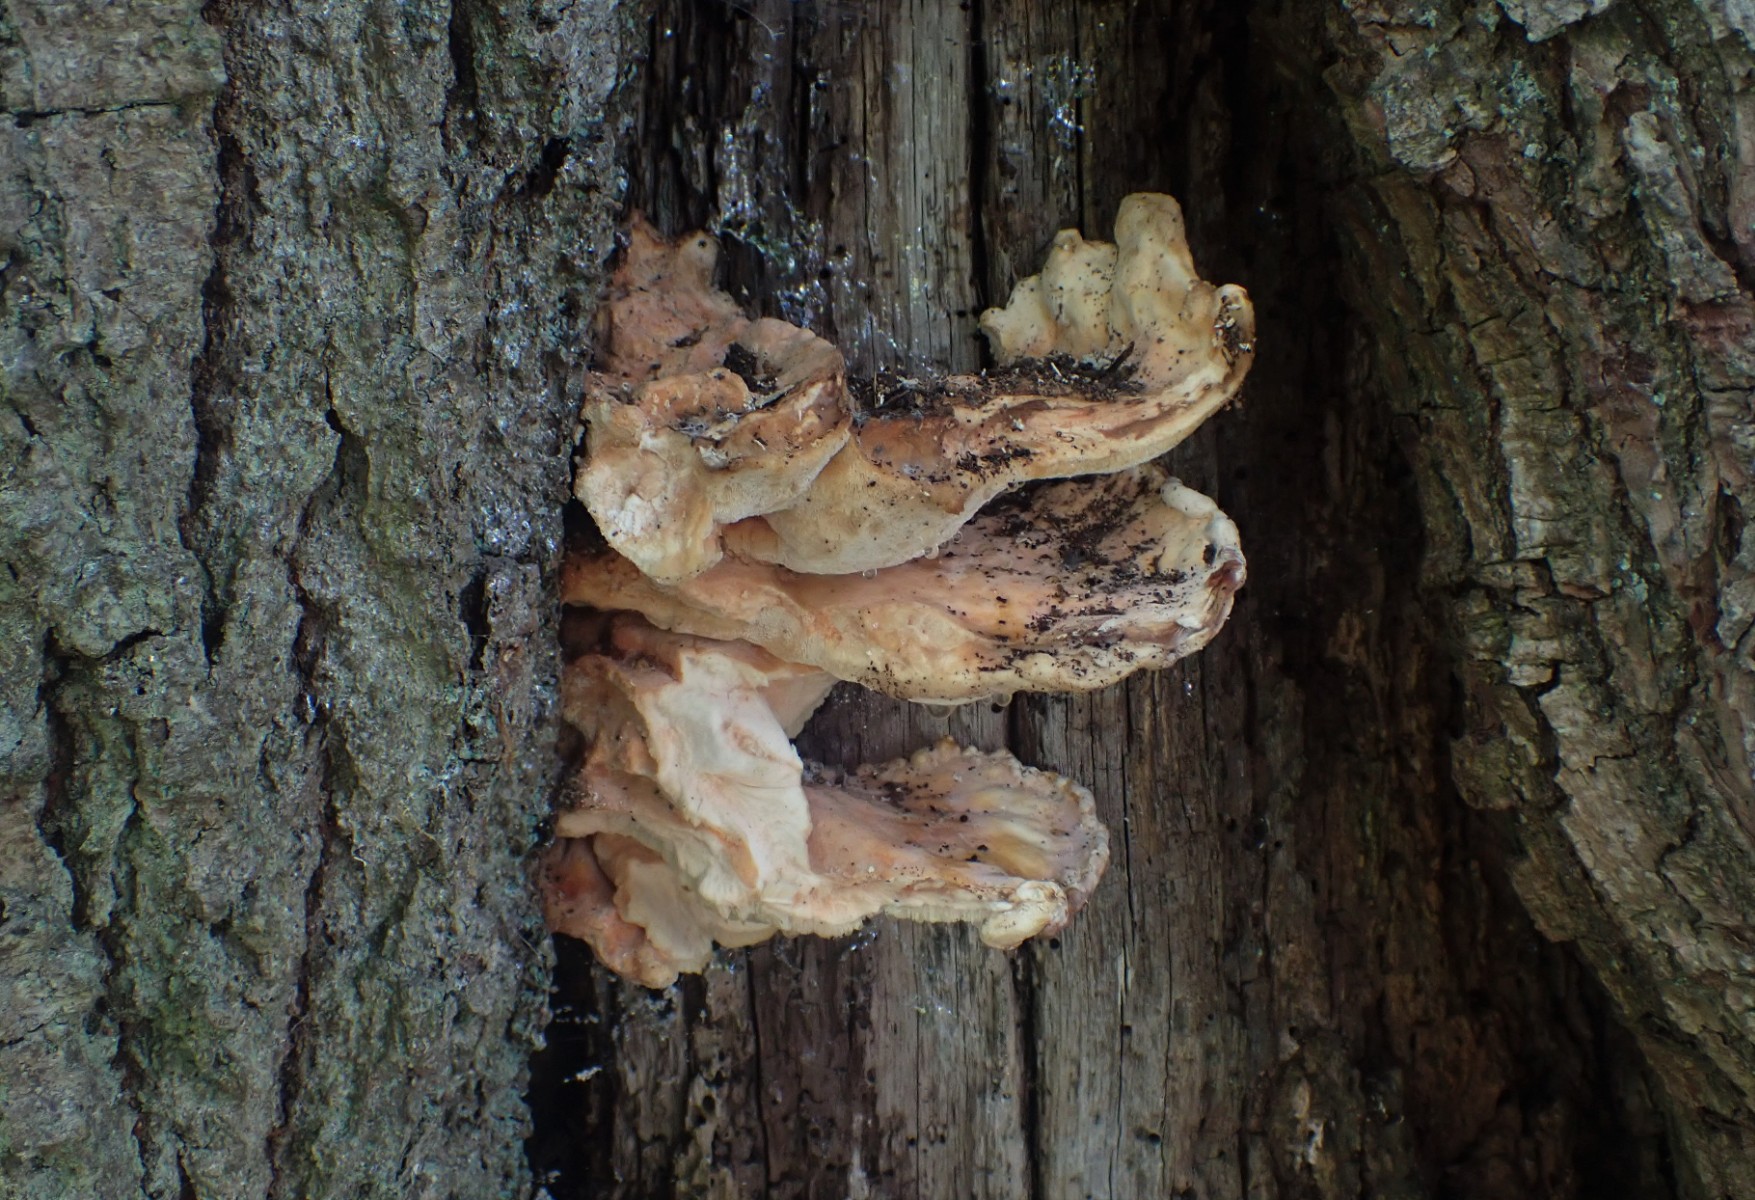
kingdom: Fungi
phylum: Basidiomycota
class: Agaricomycetes
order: Polyporales
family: Laetiporaceae
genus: Laetiporus
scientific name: Laetiporus sulphureus
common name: svovlporesvamp
